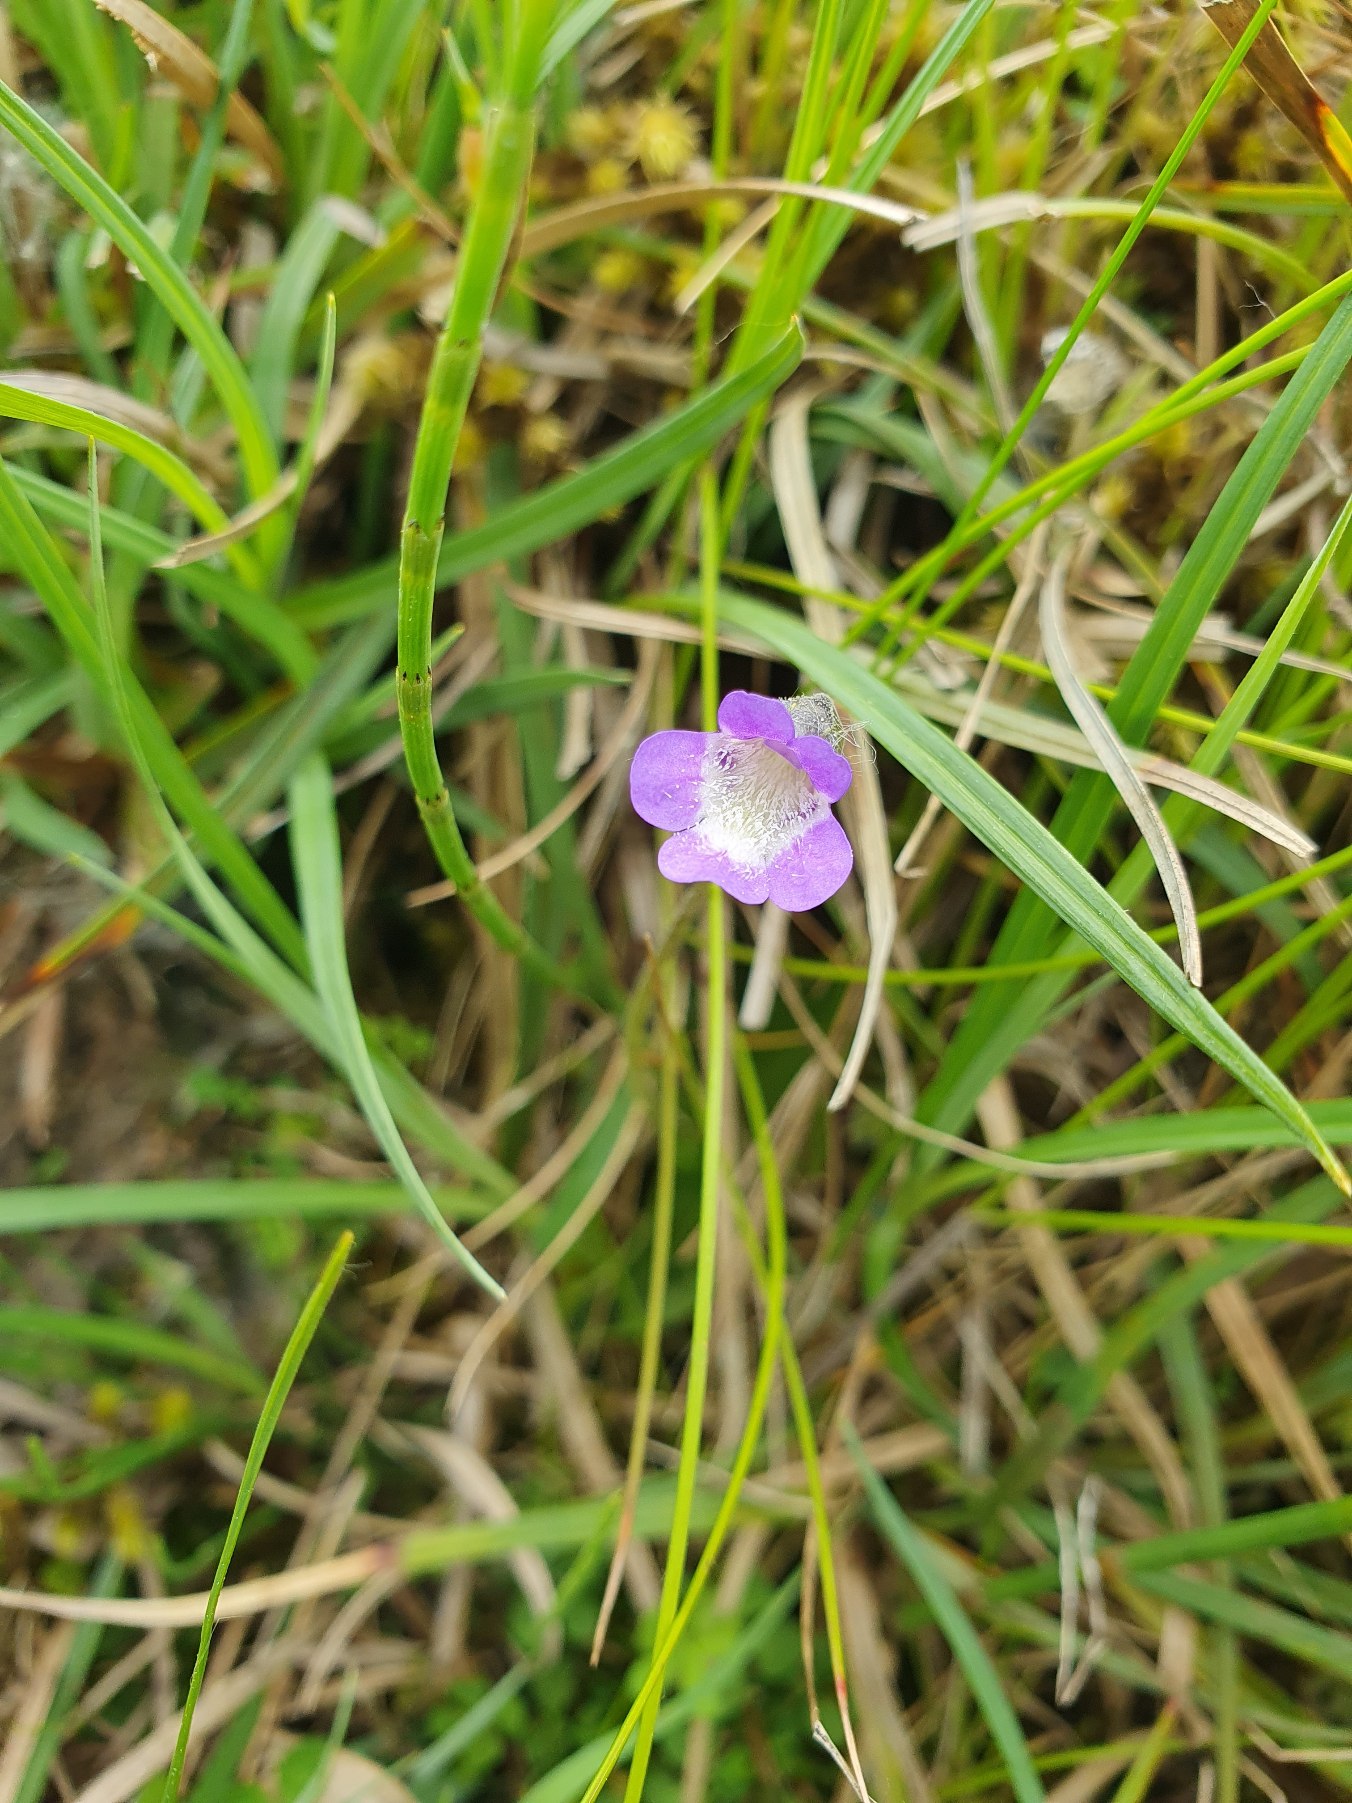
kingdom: Plantae
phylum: Tracheophyta
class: Magnoliopsida
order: Lamiales
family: Lentibulariaceae
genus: Pinguicula
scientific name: Pinguicula vulgaris
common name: Vibefedt
